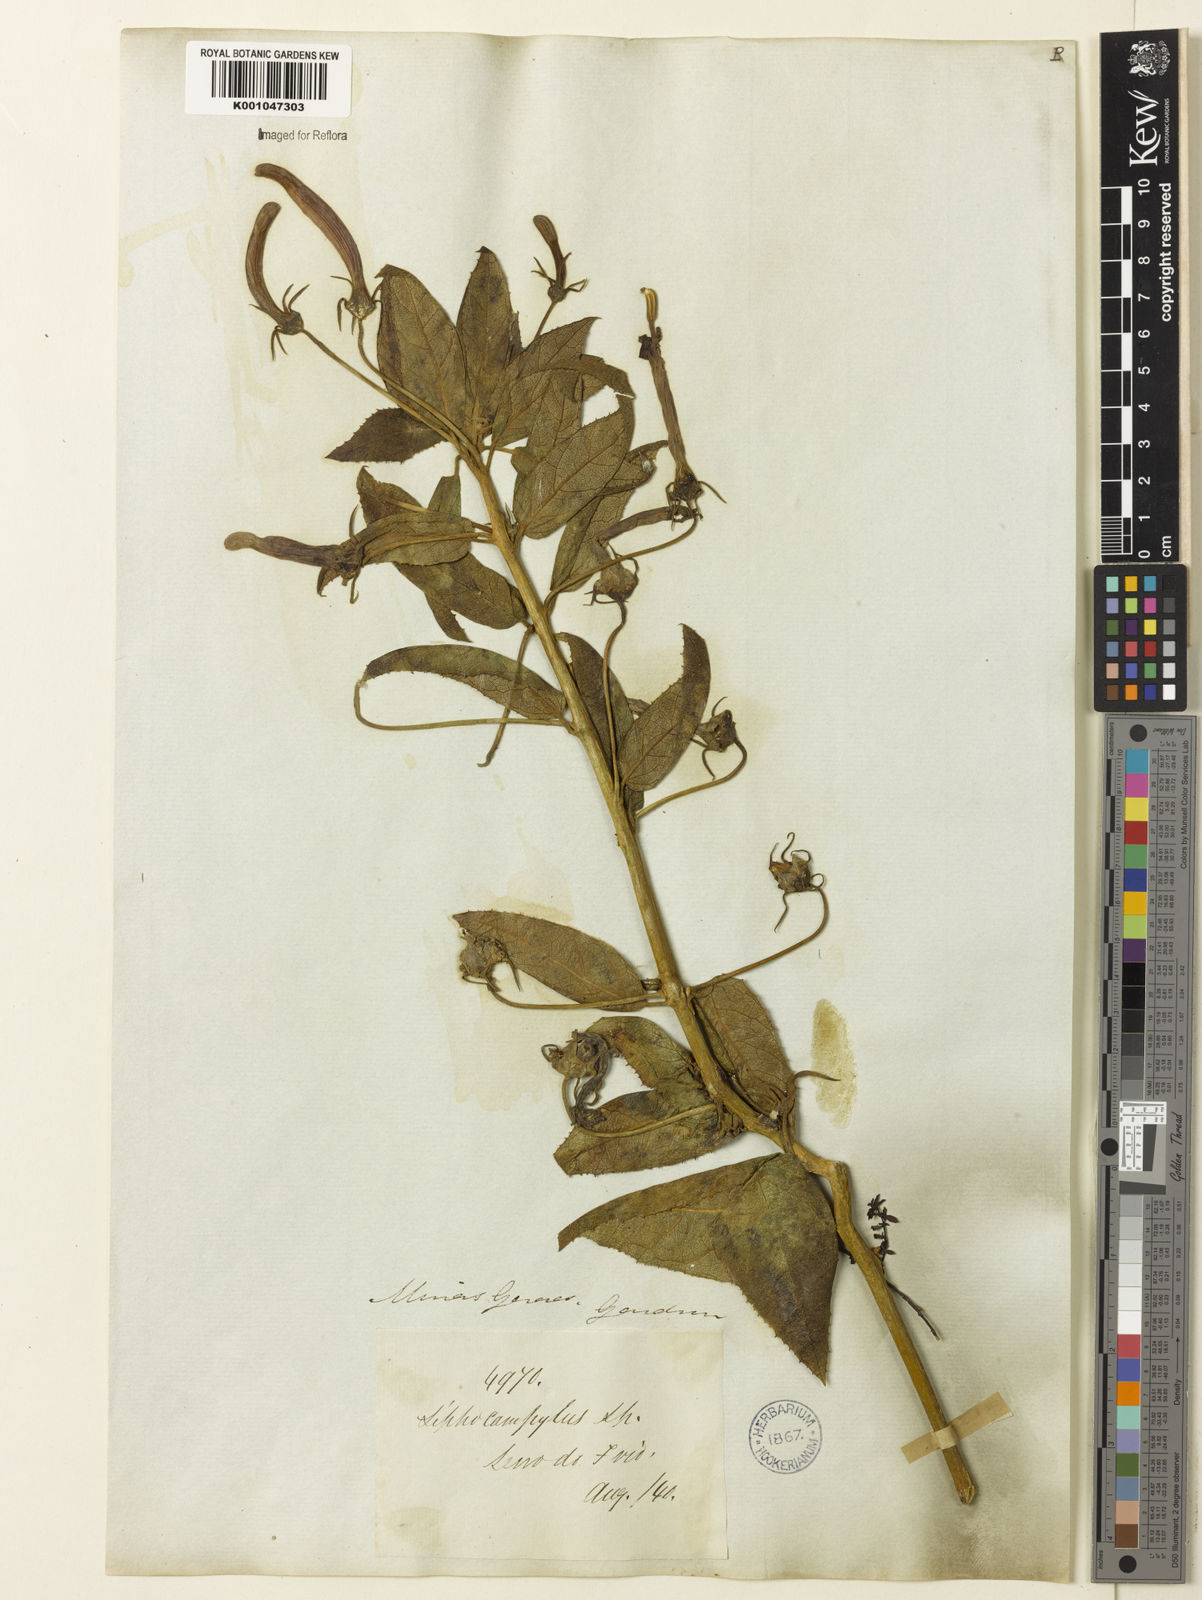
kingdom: Plantae
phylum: Tracheophyta
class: Magnoliopsida
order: Asterales
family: Campanulaceae
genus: Siphocampylus
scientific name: Siphocampylus nitidus
